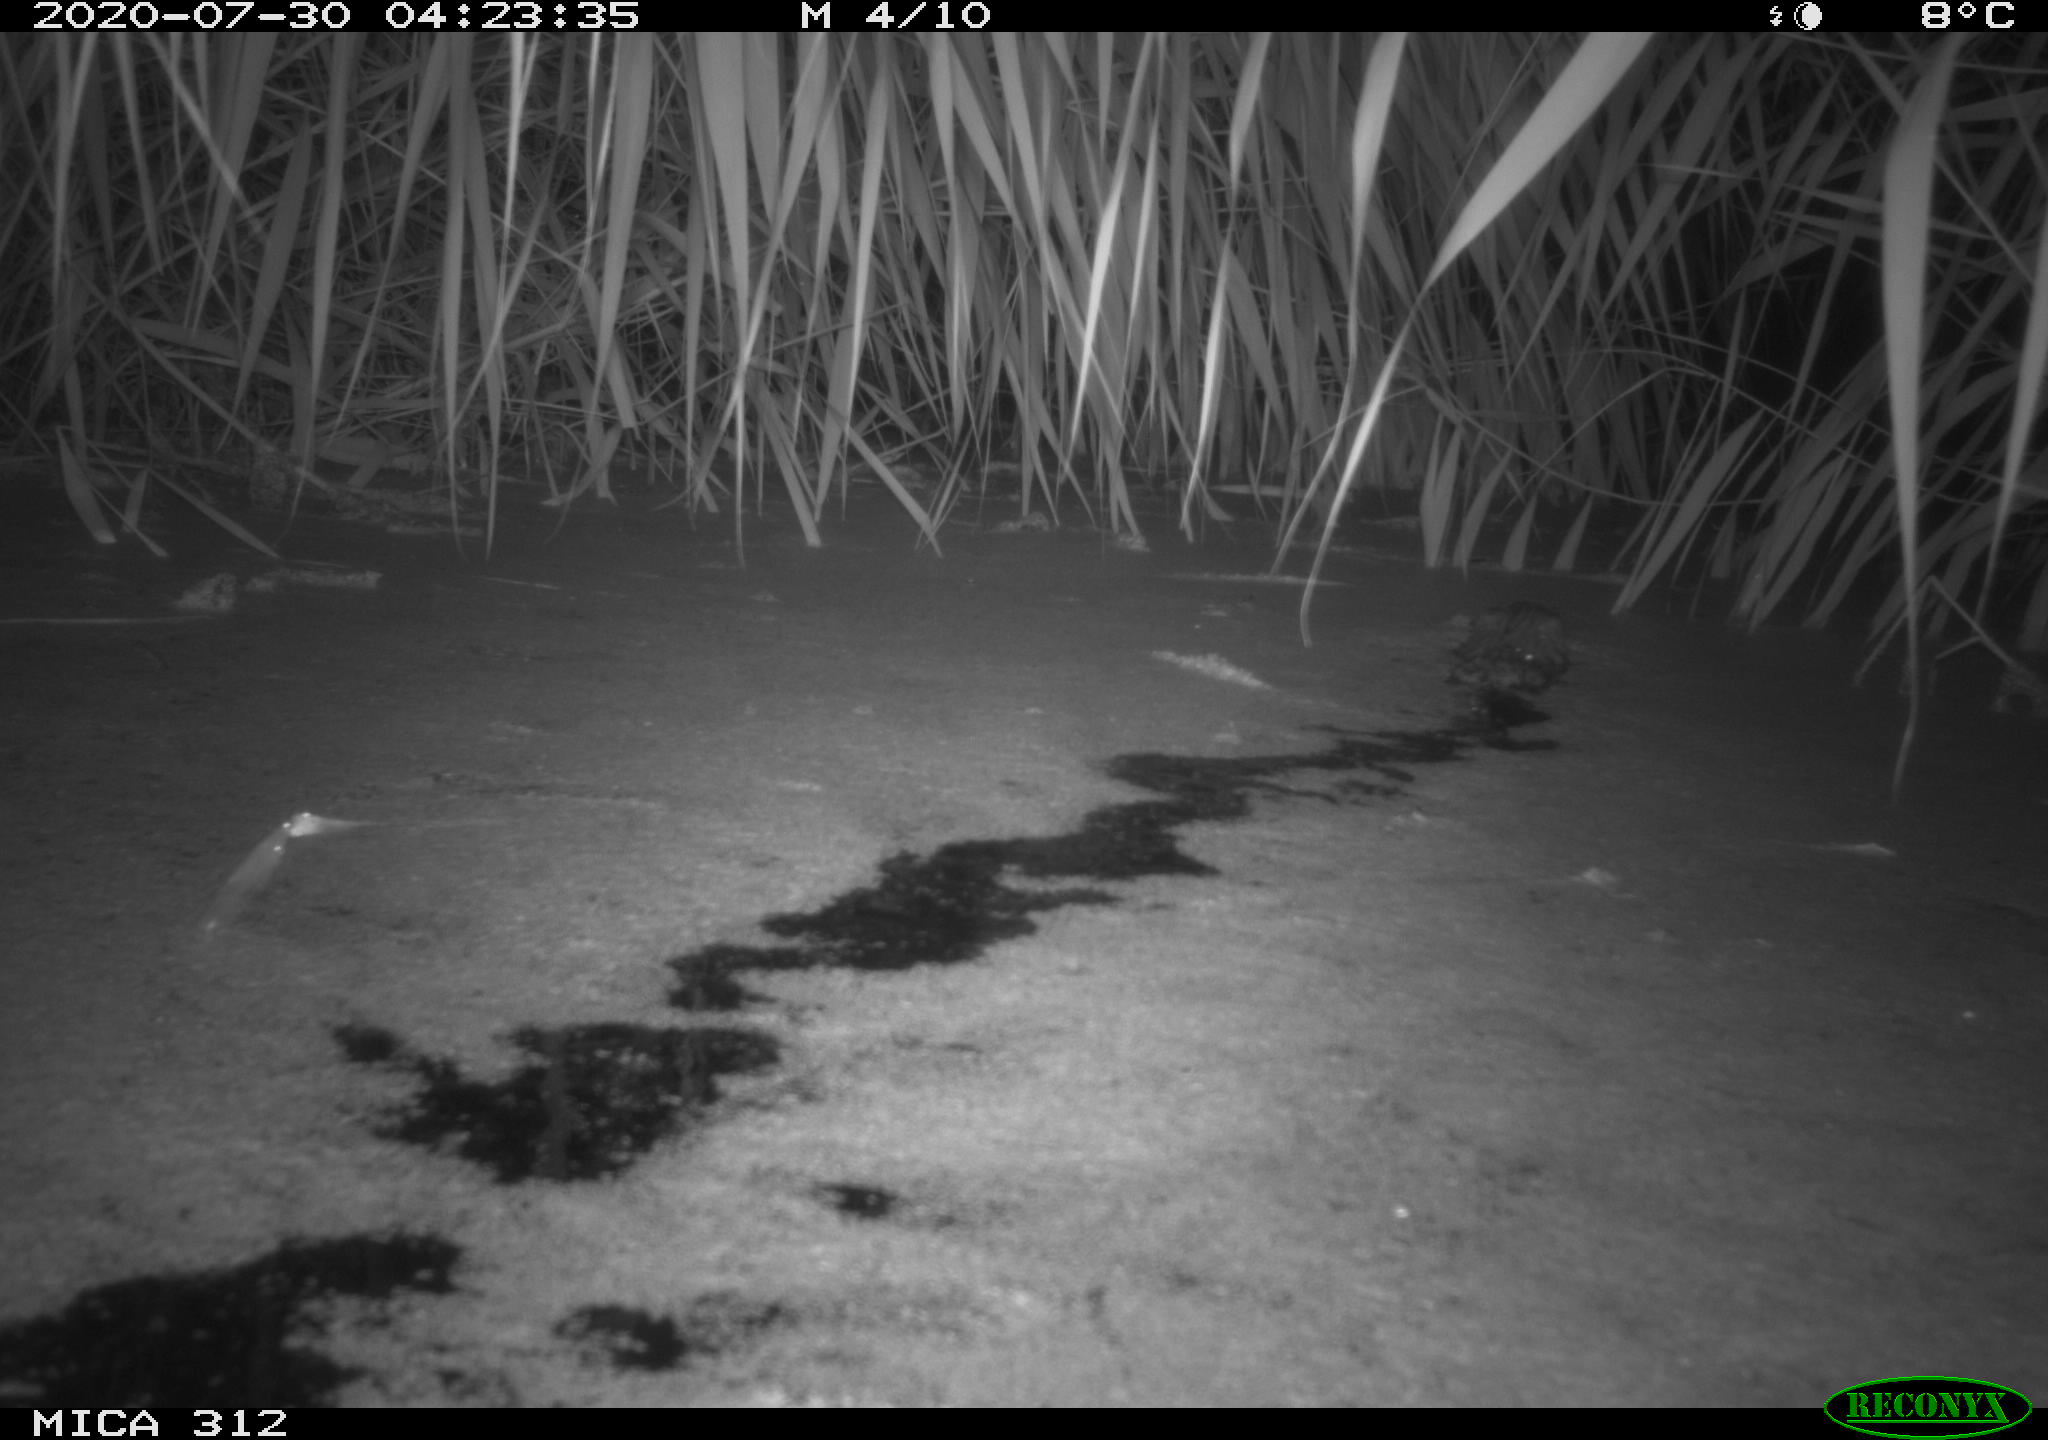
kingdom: Animalia
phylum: Chordata
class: Mammalia
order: Rodentia
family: Cricetidae
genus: Ondatra
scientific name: Ondatra zibethicus
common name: Muskrat
